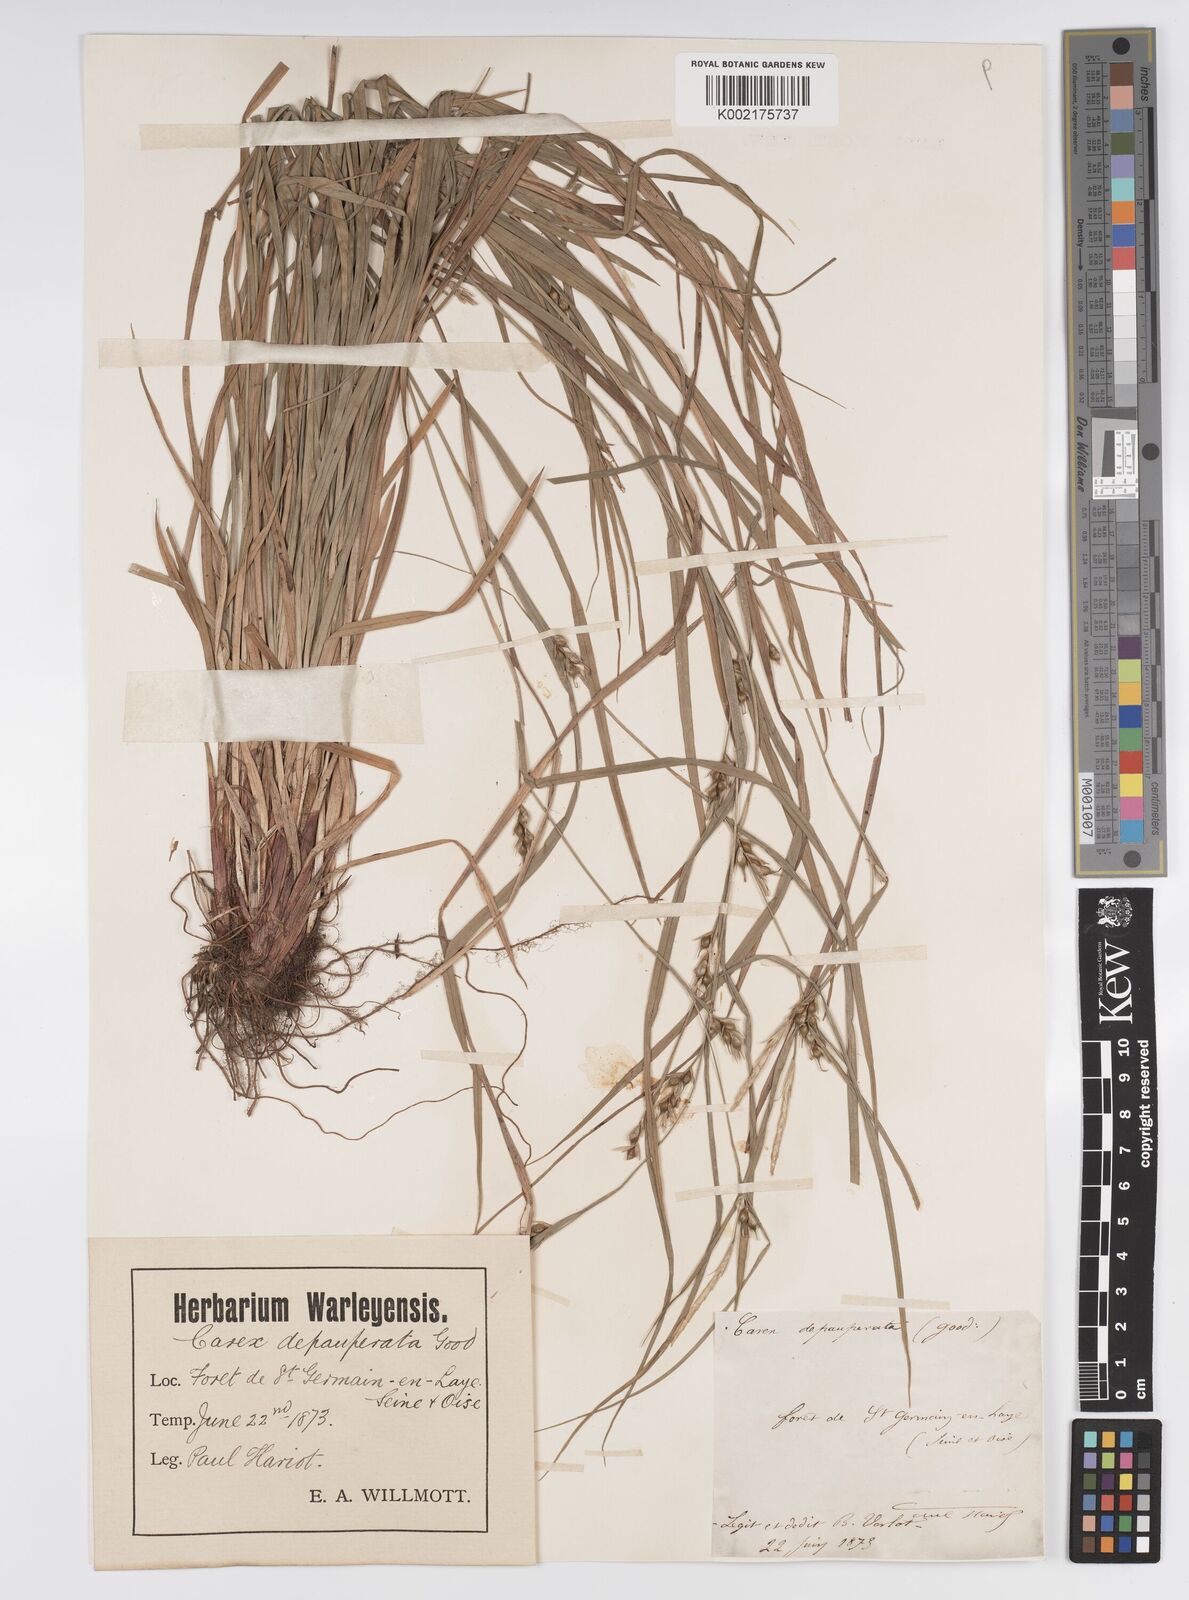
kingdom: Plantae
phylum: Tracheophyta
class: Liliopsida
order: Poales
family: Cyperaceae
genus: Carex
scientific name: Carex
